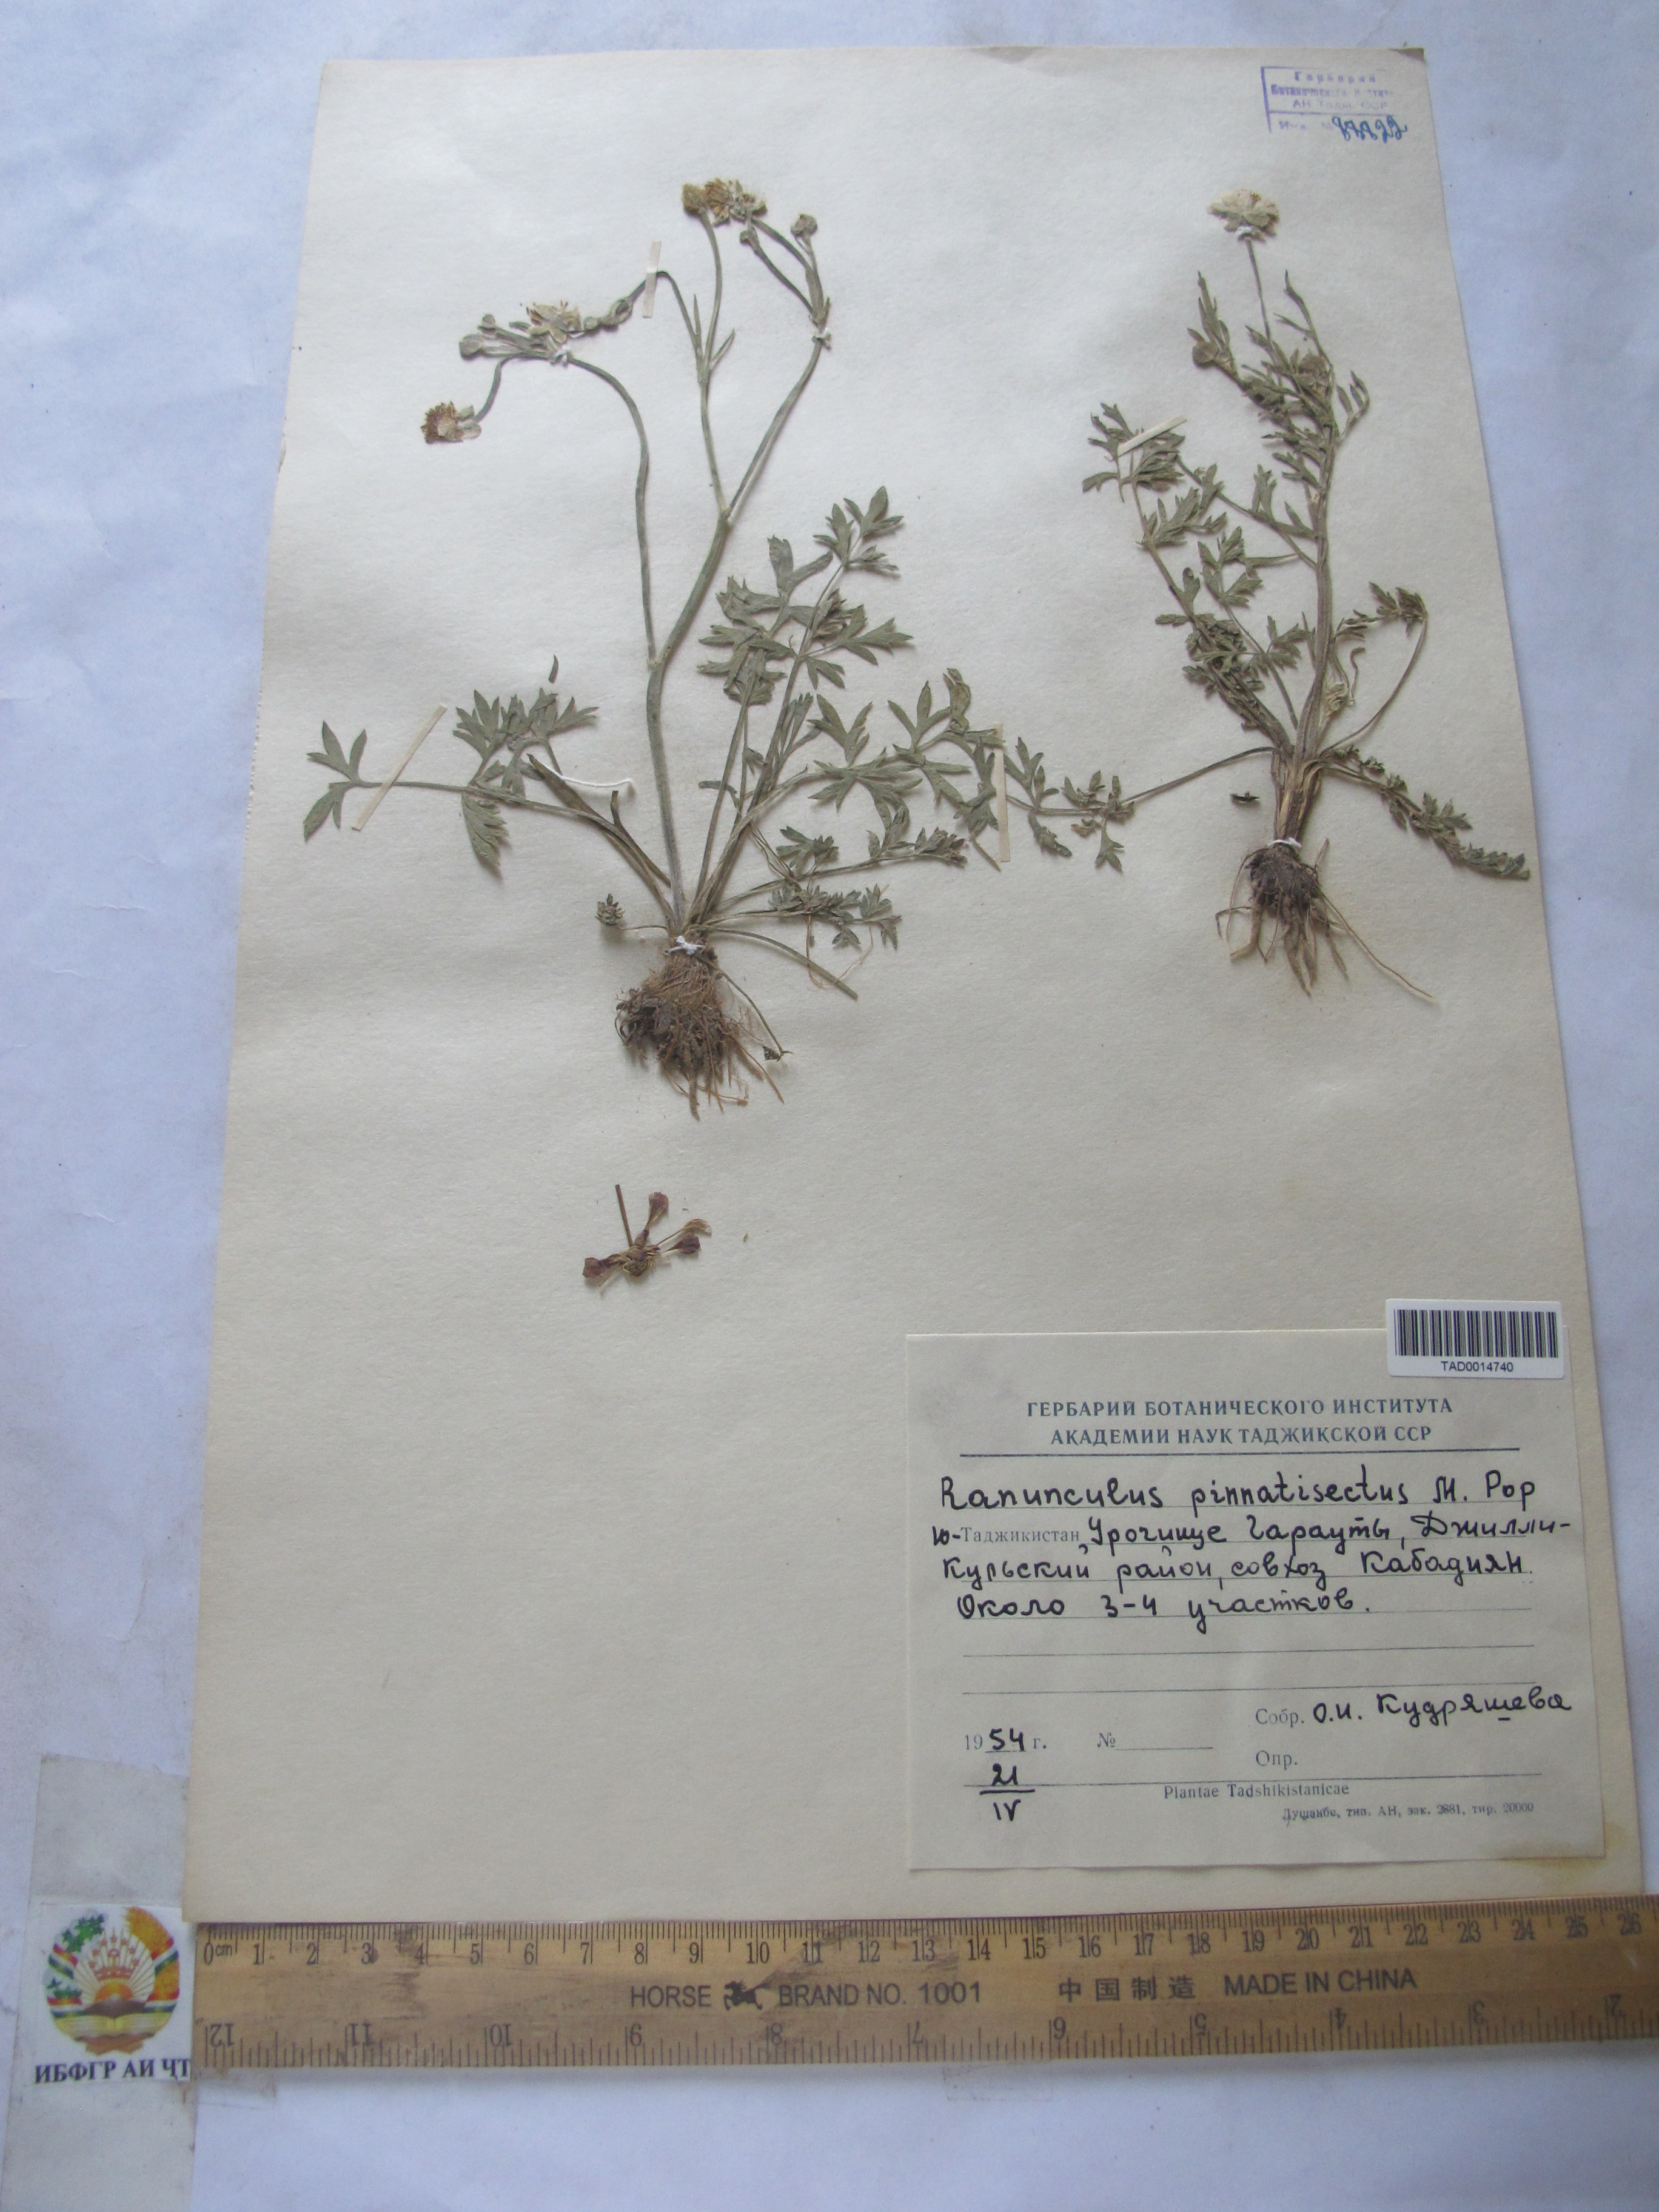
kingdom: Plantae
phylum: Tracheophyta
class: Magnoliopsida
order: Ranunculales
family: Ranunculaceae
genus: Ranunculus
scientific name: Ranunculus pinnatisectus
